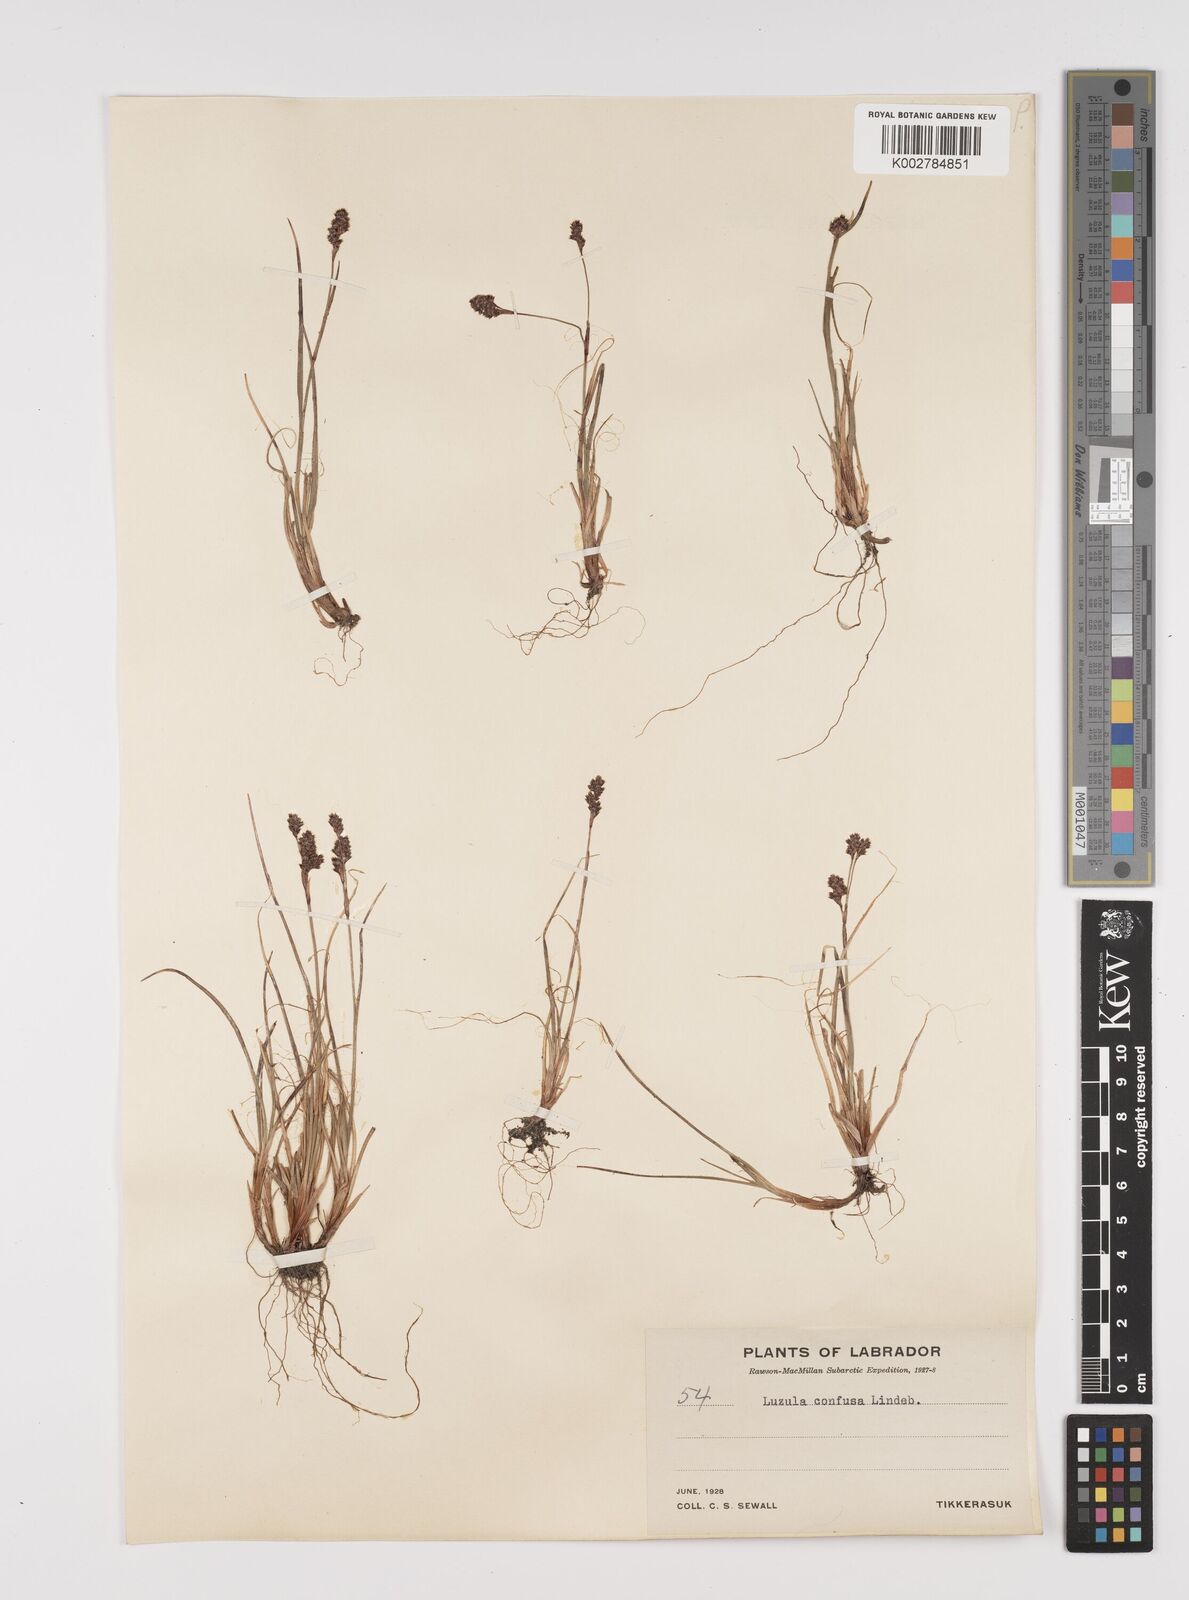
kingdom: Plantae
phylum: Tracheophyta
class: Liliopsida
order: Poales
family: Juncaceae
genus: Luzula
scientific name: Luzula confusa
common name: Northern wood rush
